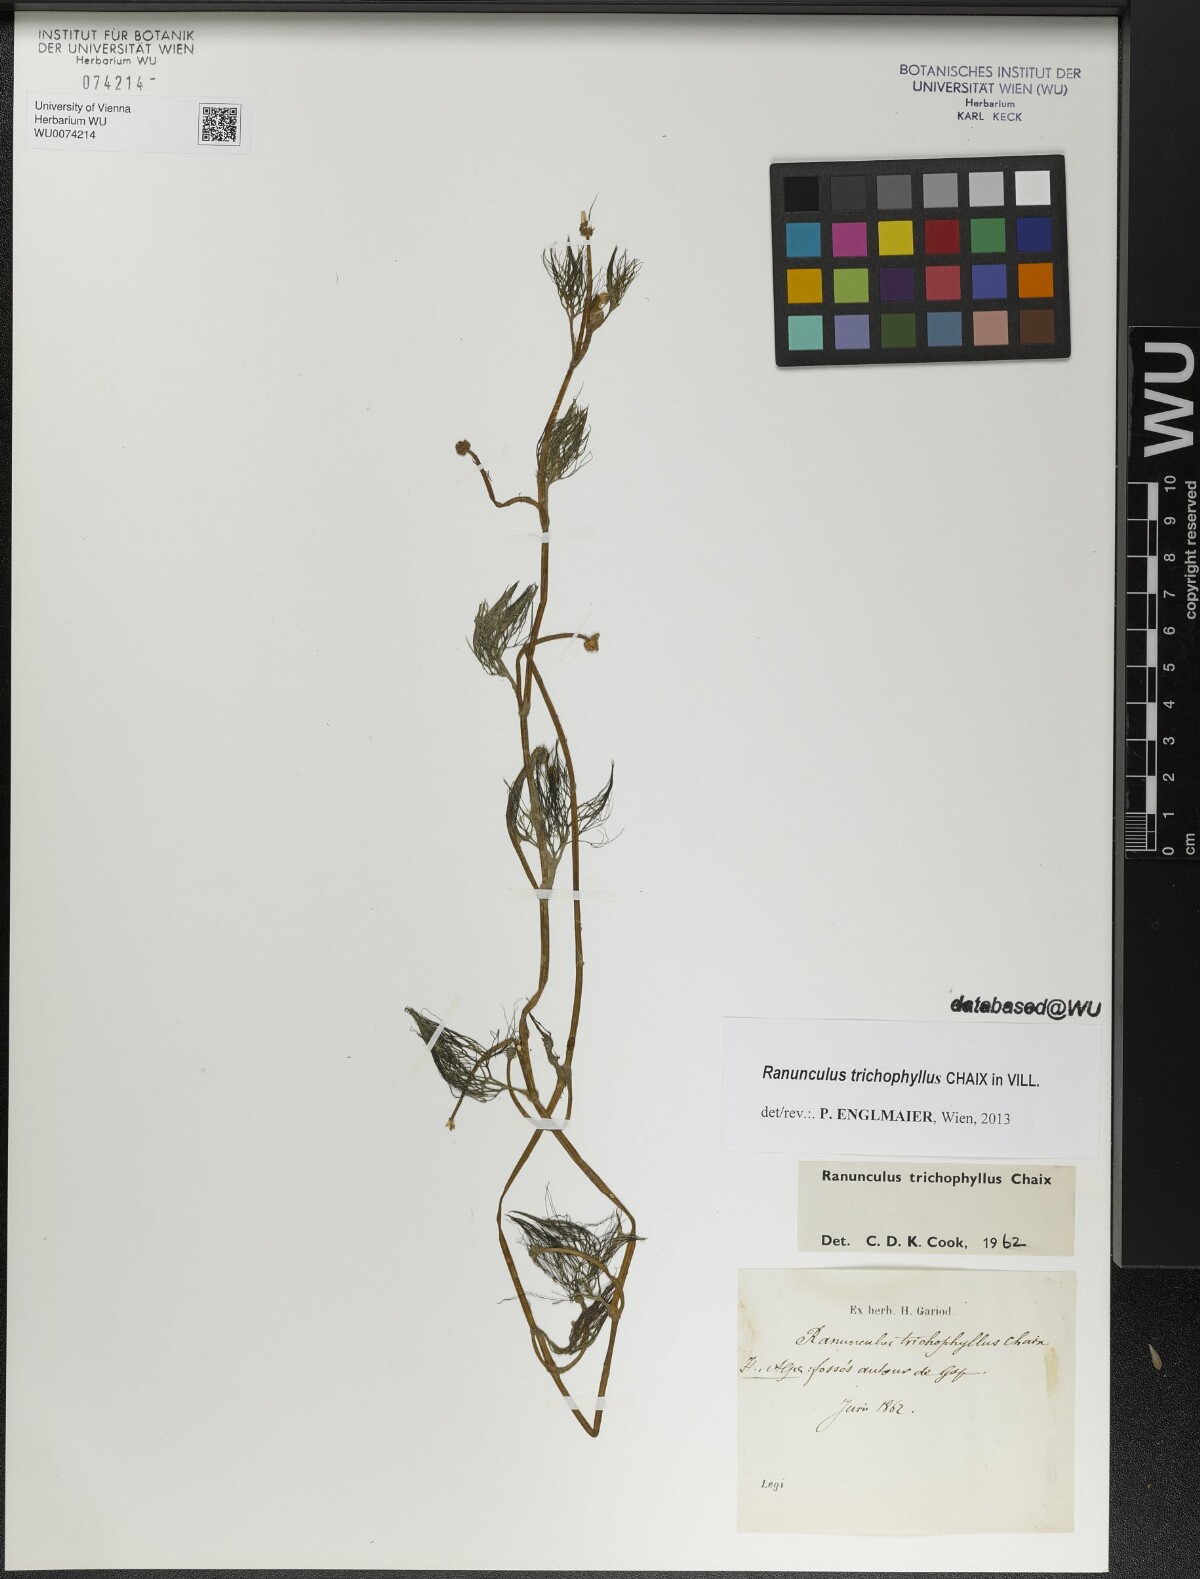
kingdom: Plantae
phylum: Tracheophyta
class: Magnoliopsida
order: Ranunculales
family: Ranunculaceae
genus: Ranunculus
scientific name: Ranunculus trichophyllus
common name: Thread-leaved water-crowfoot
